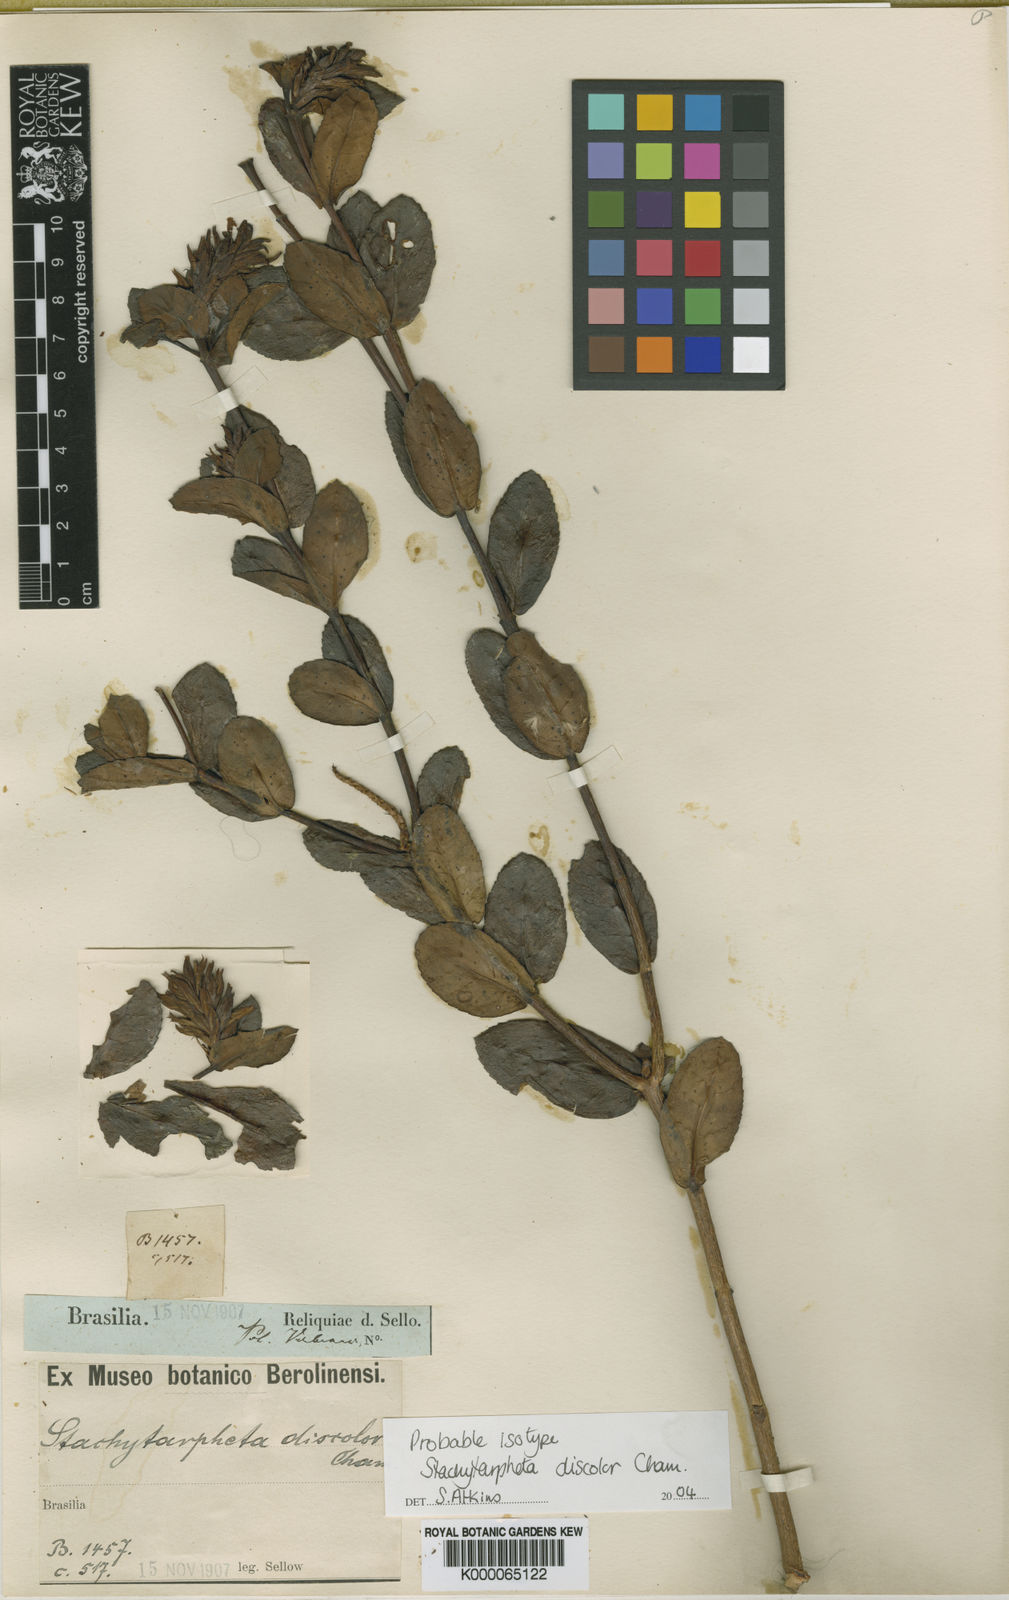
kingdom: Plantae
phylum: Tracheophyta
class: Magnoliopsida
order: Lamiales
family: Verbenaceae
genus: Stachytarpheta
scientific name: Stachytarpheta discolor
